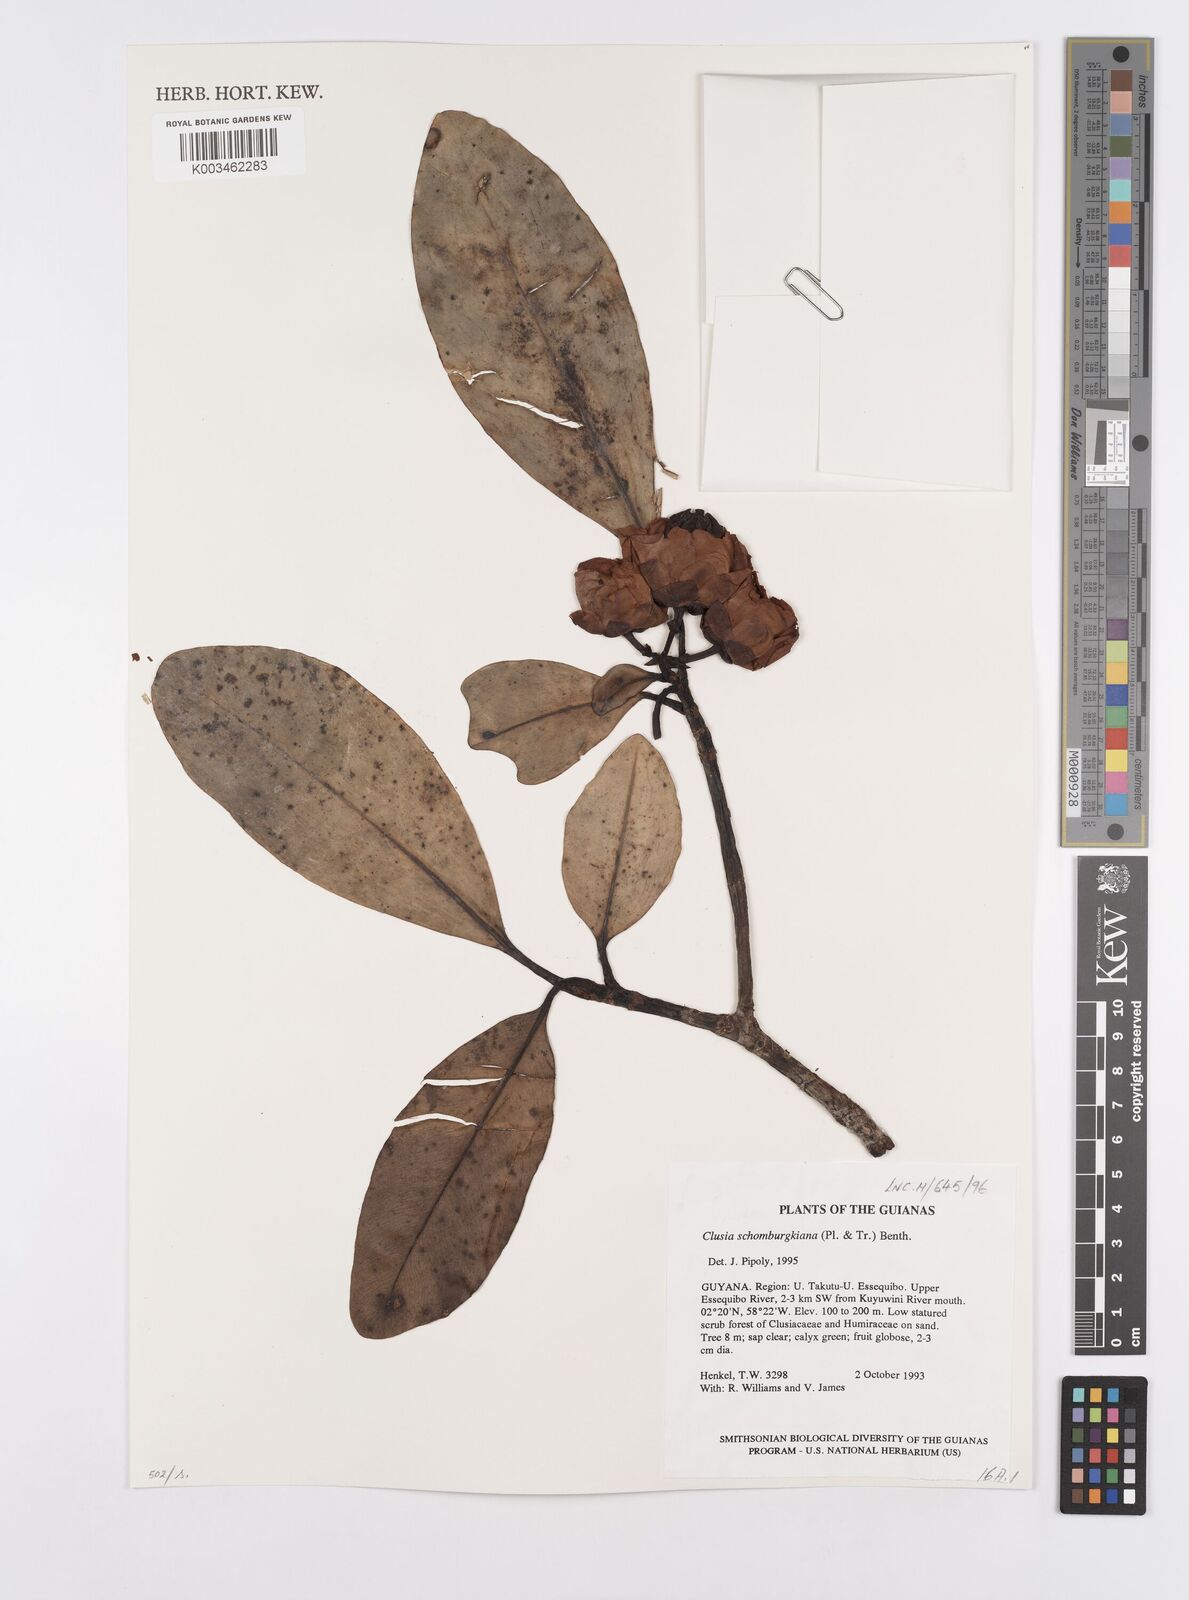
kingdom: Plantae
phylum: Tracheophyta
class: Magnoliopsida
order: Malpighiales
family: Clusiaceae
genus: Clusia
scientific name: Clusia schomburgkiana
